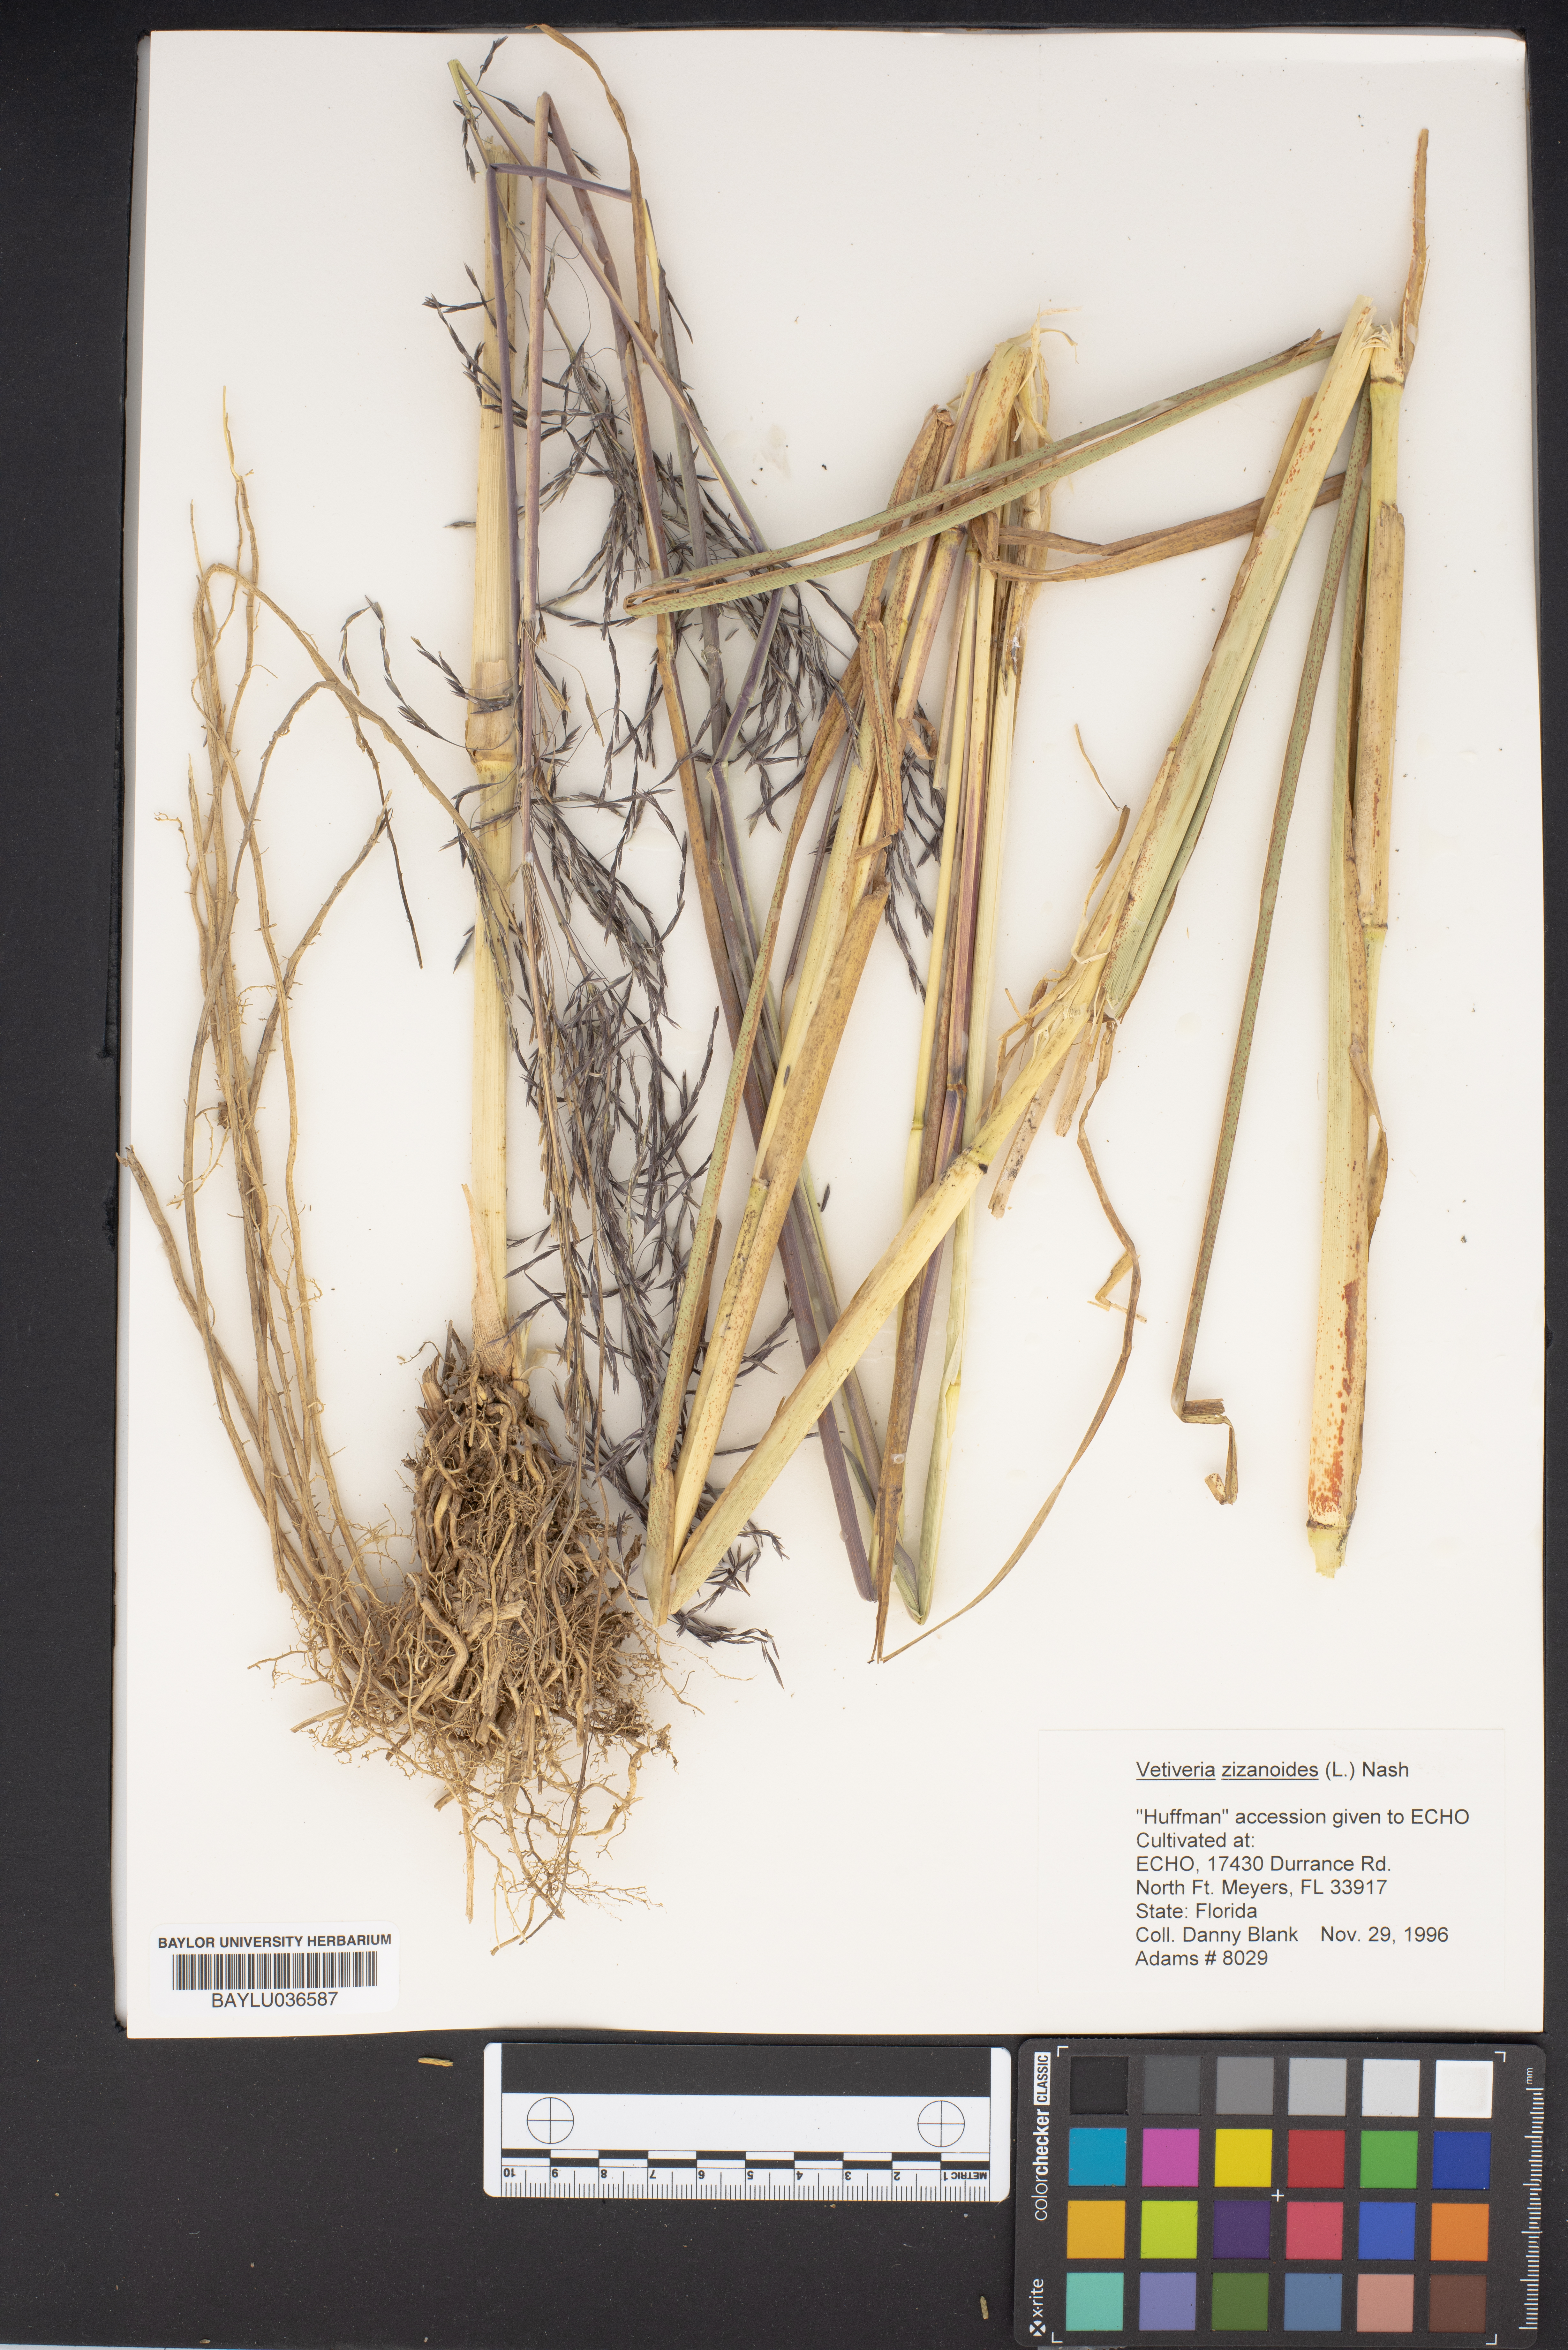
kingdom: Plantae
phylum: Tracheophyta
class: Liliopsida
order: Poales
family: Poaceae
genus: Vetiveria
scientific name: Vetiveria zizanioides
